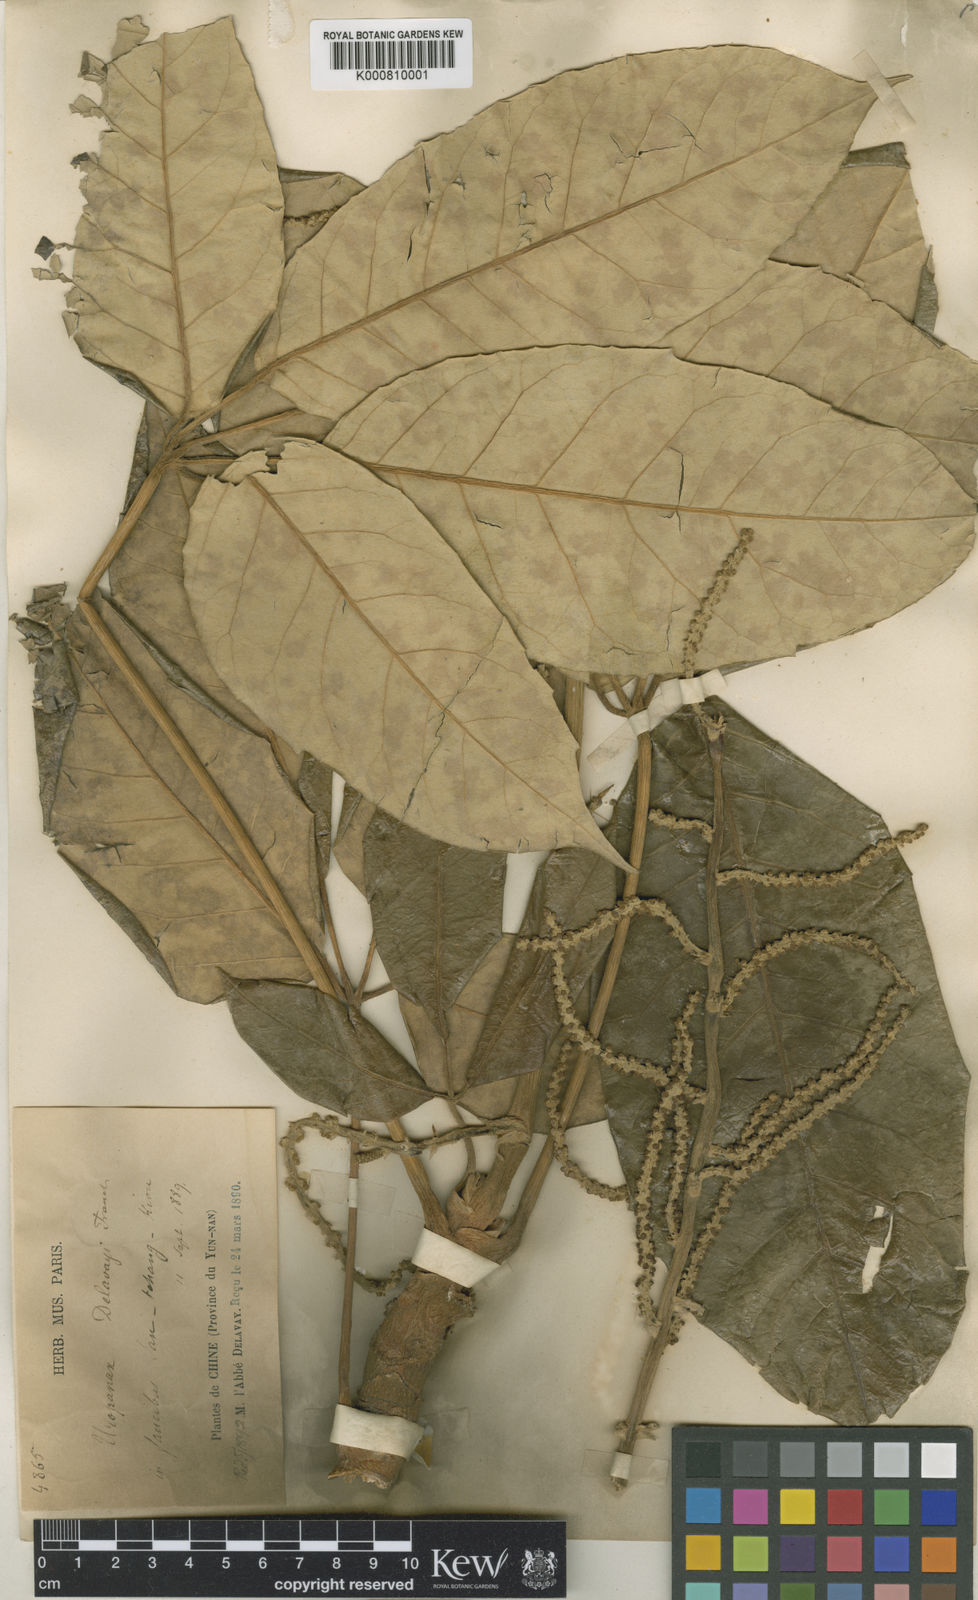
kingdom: Plantae
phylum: Tracheophyta
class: Magnoliopsida
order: Apiales
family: Araliaceae
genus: Heptapleurum
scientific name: Heptapleurum delavayi
